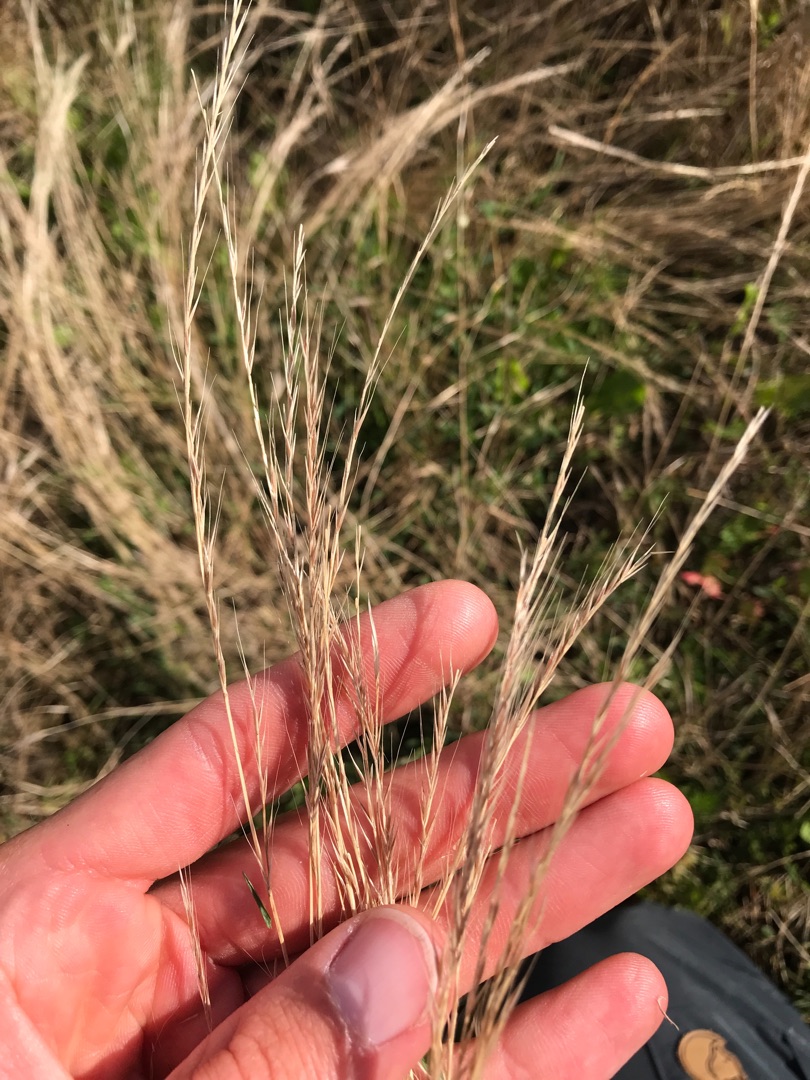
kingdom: Plantae
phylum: Tracheophyta
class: Liliopsida
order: Poales
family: Poaceae
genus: Festuca
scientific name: Festuca
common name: Væselhaleslægten
